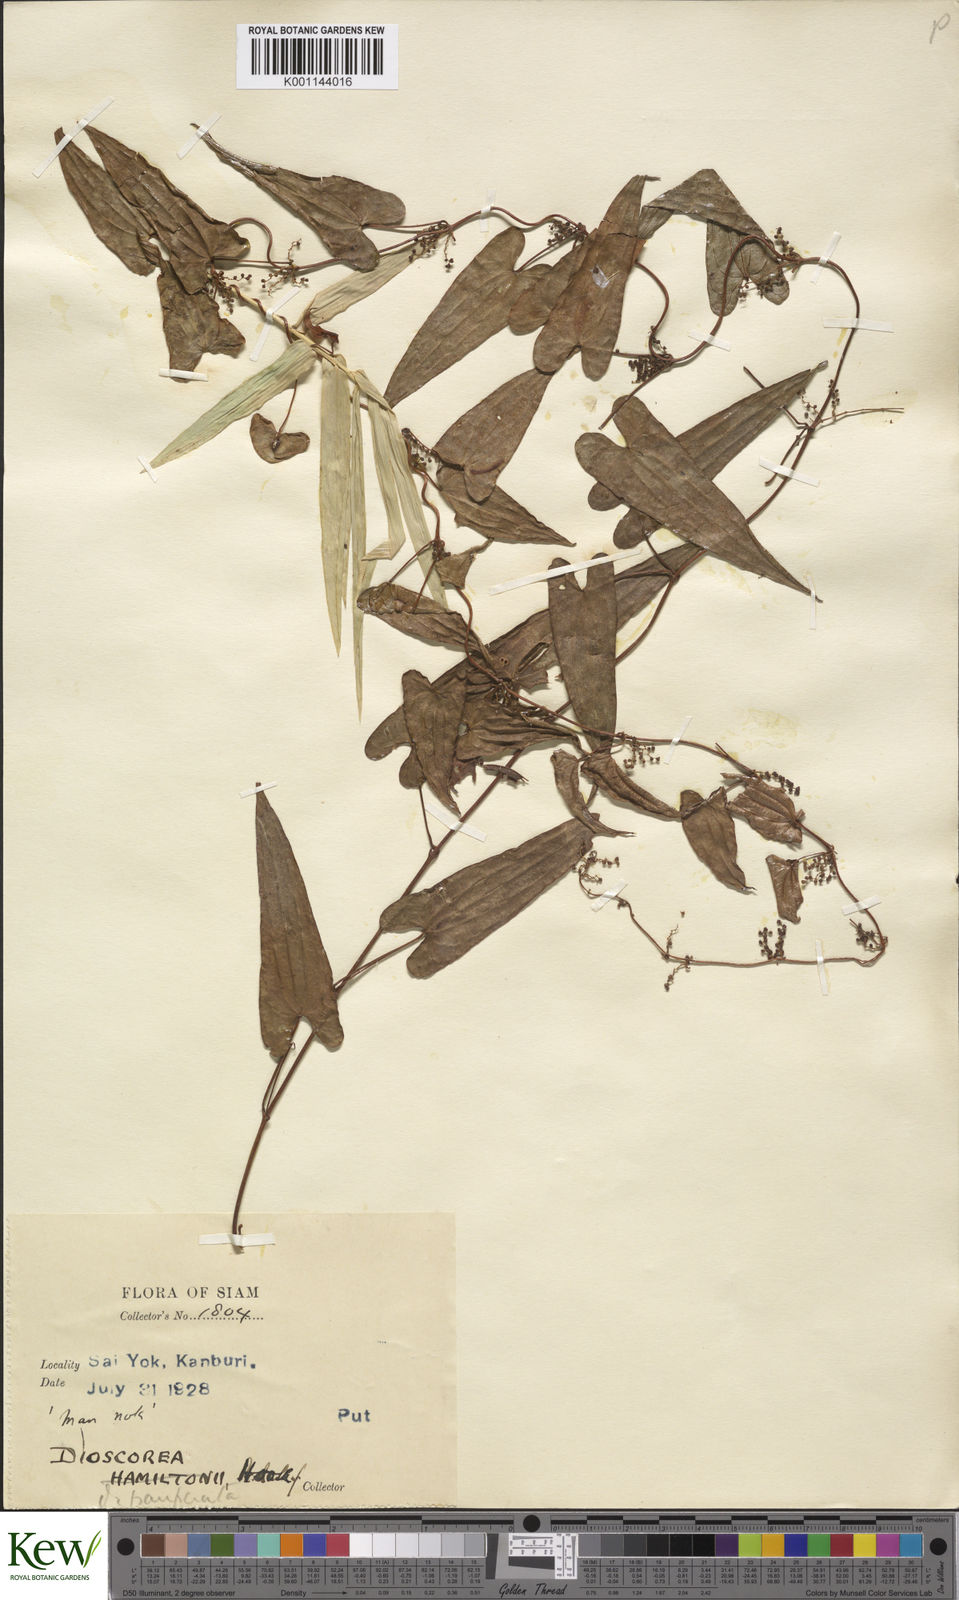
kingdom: Plantae
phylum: Tracheophyta
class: Liliopsida
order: Dioscoreales
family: Dioscoreaceae
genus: Dioscorea
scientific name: Dioscorea depauperata
